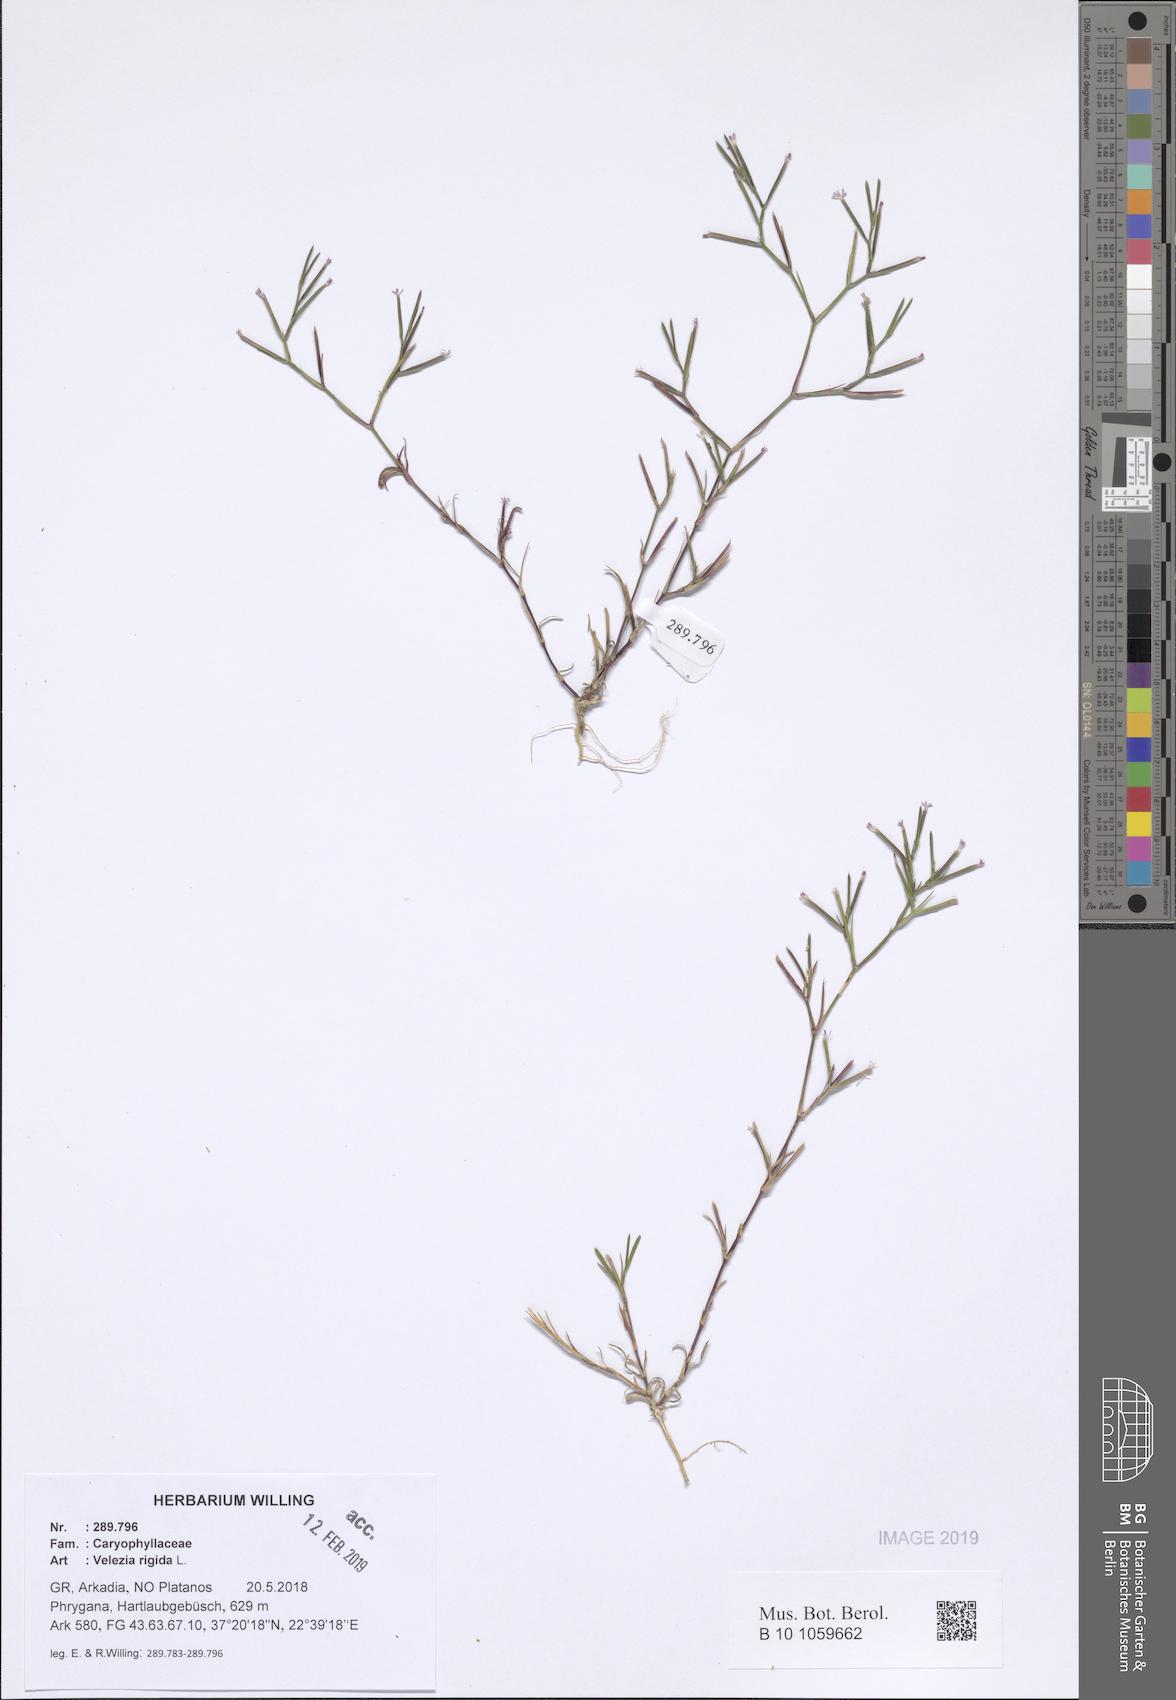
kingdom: Plantae
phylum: Tracheophyta
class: Magnoliopsida
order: Caryophyllales
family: Caryophyllaceae
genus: Dianthus
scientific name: Dianthus nudiflorus
